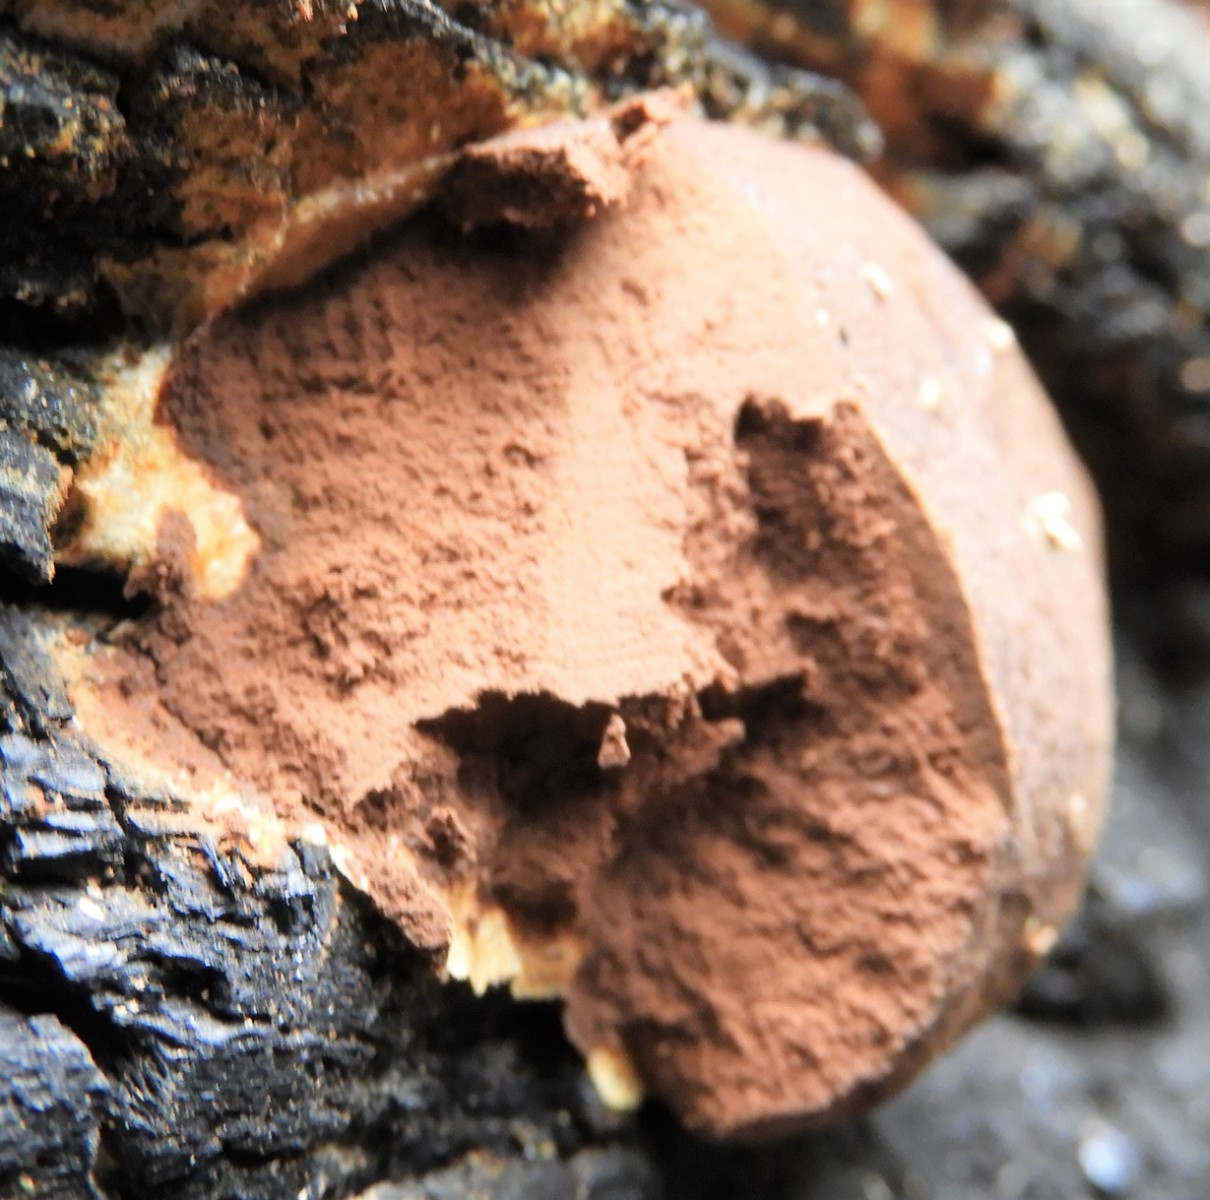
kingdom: Protozoa
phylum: Mycetozoa
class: Myxomycetes
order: Cribrariales
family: Tubiferaceae
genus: Reticularia
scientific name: Reticularia lycoperdon
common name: skinnende støvpude
